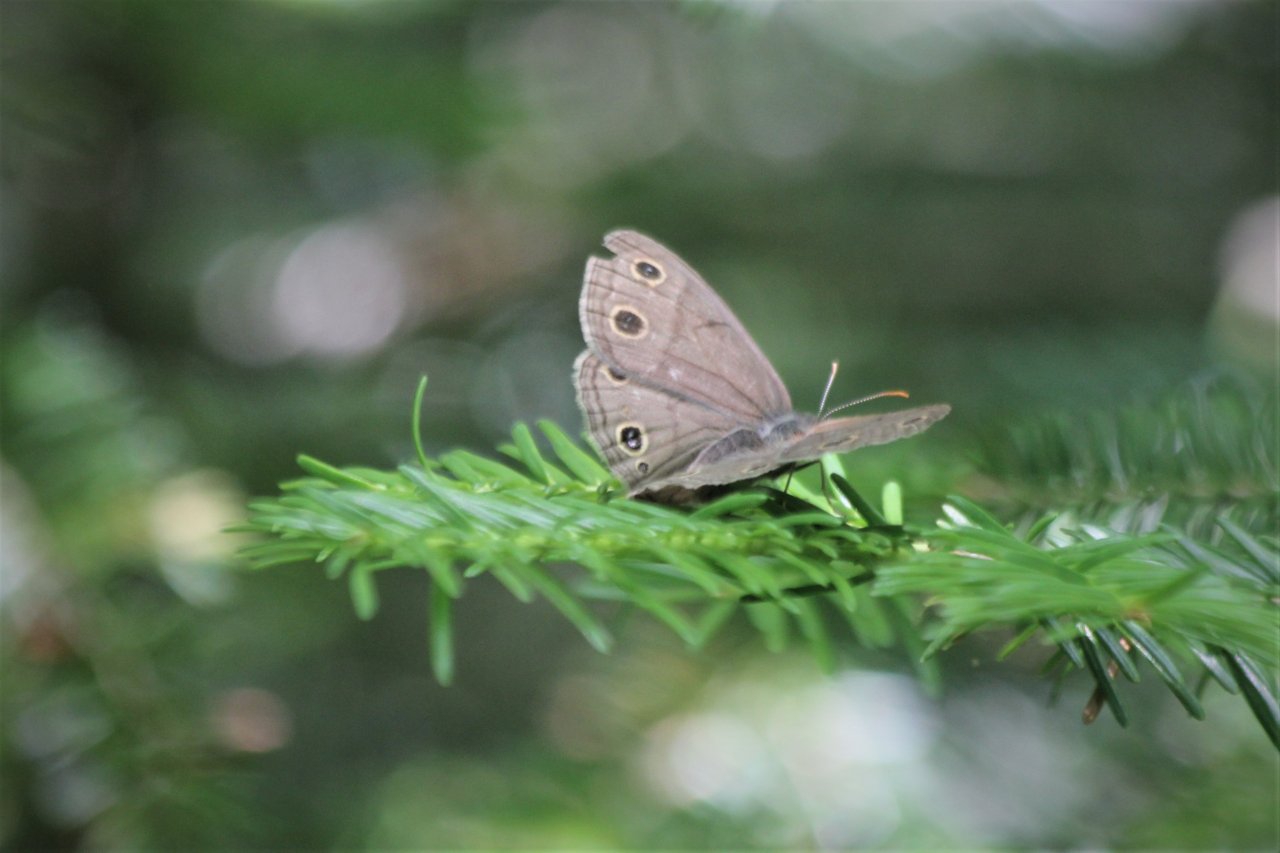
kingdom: Animalia
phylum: Arthropoda
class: Insecta
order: Lepidoptera
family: Nymphalidae
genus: Euptychia
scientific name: Euptychia cymela
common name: Little Wood Satyr
